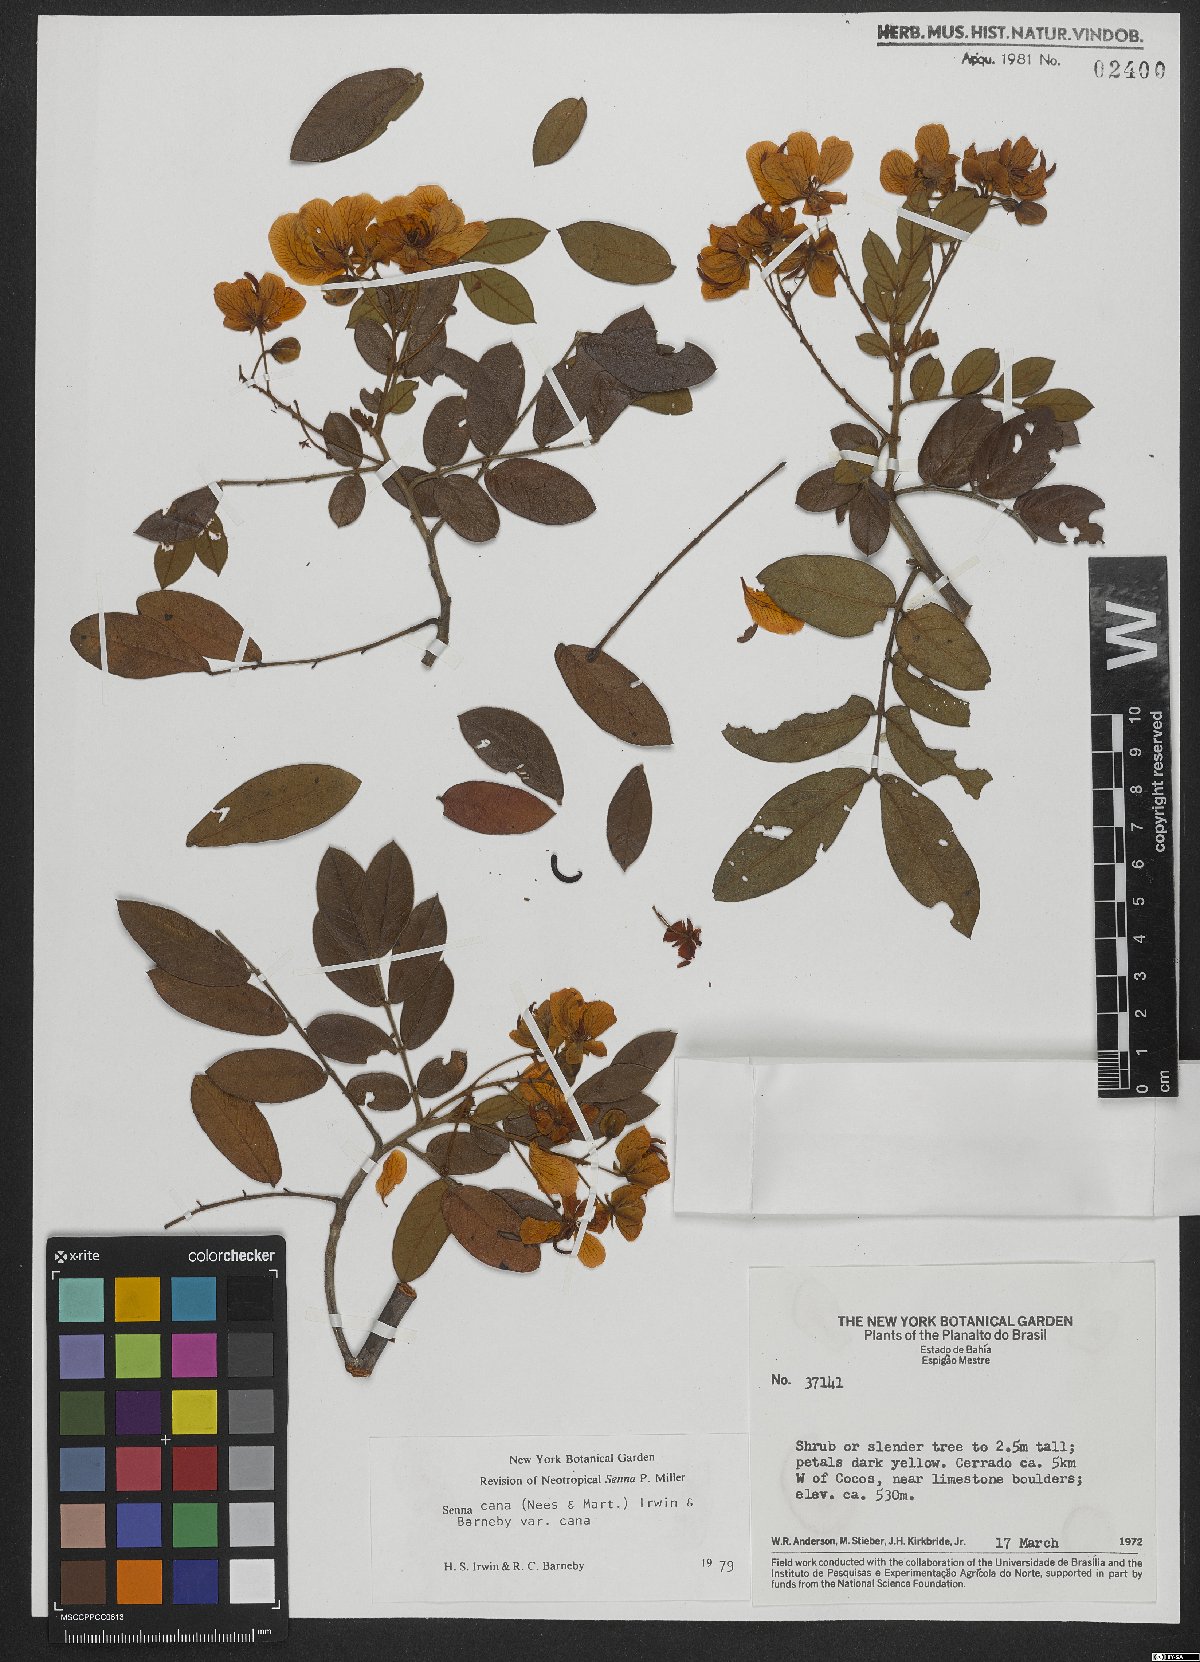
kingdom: Plantae
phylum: Tracheophyta
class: Magnoliopsida
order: Fabales
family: Fabaceae
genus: Senna
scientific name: Senna cana
